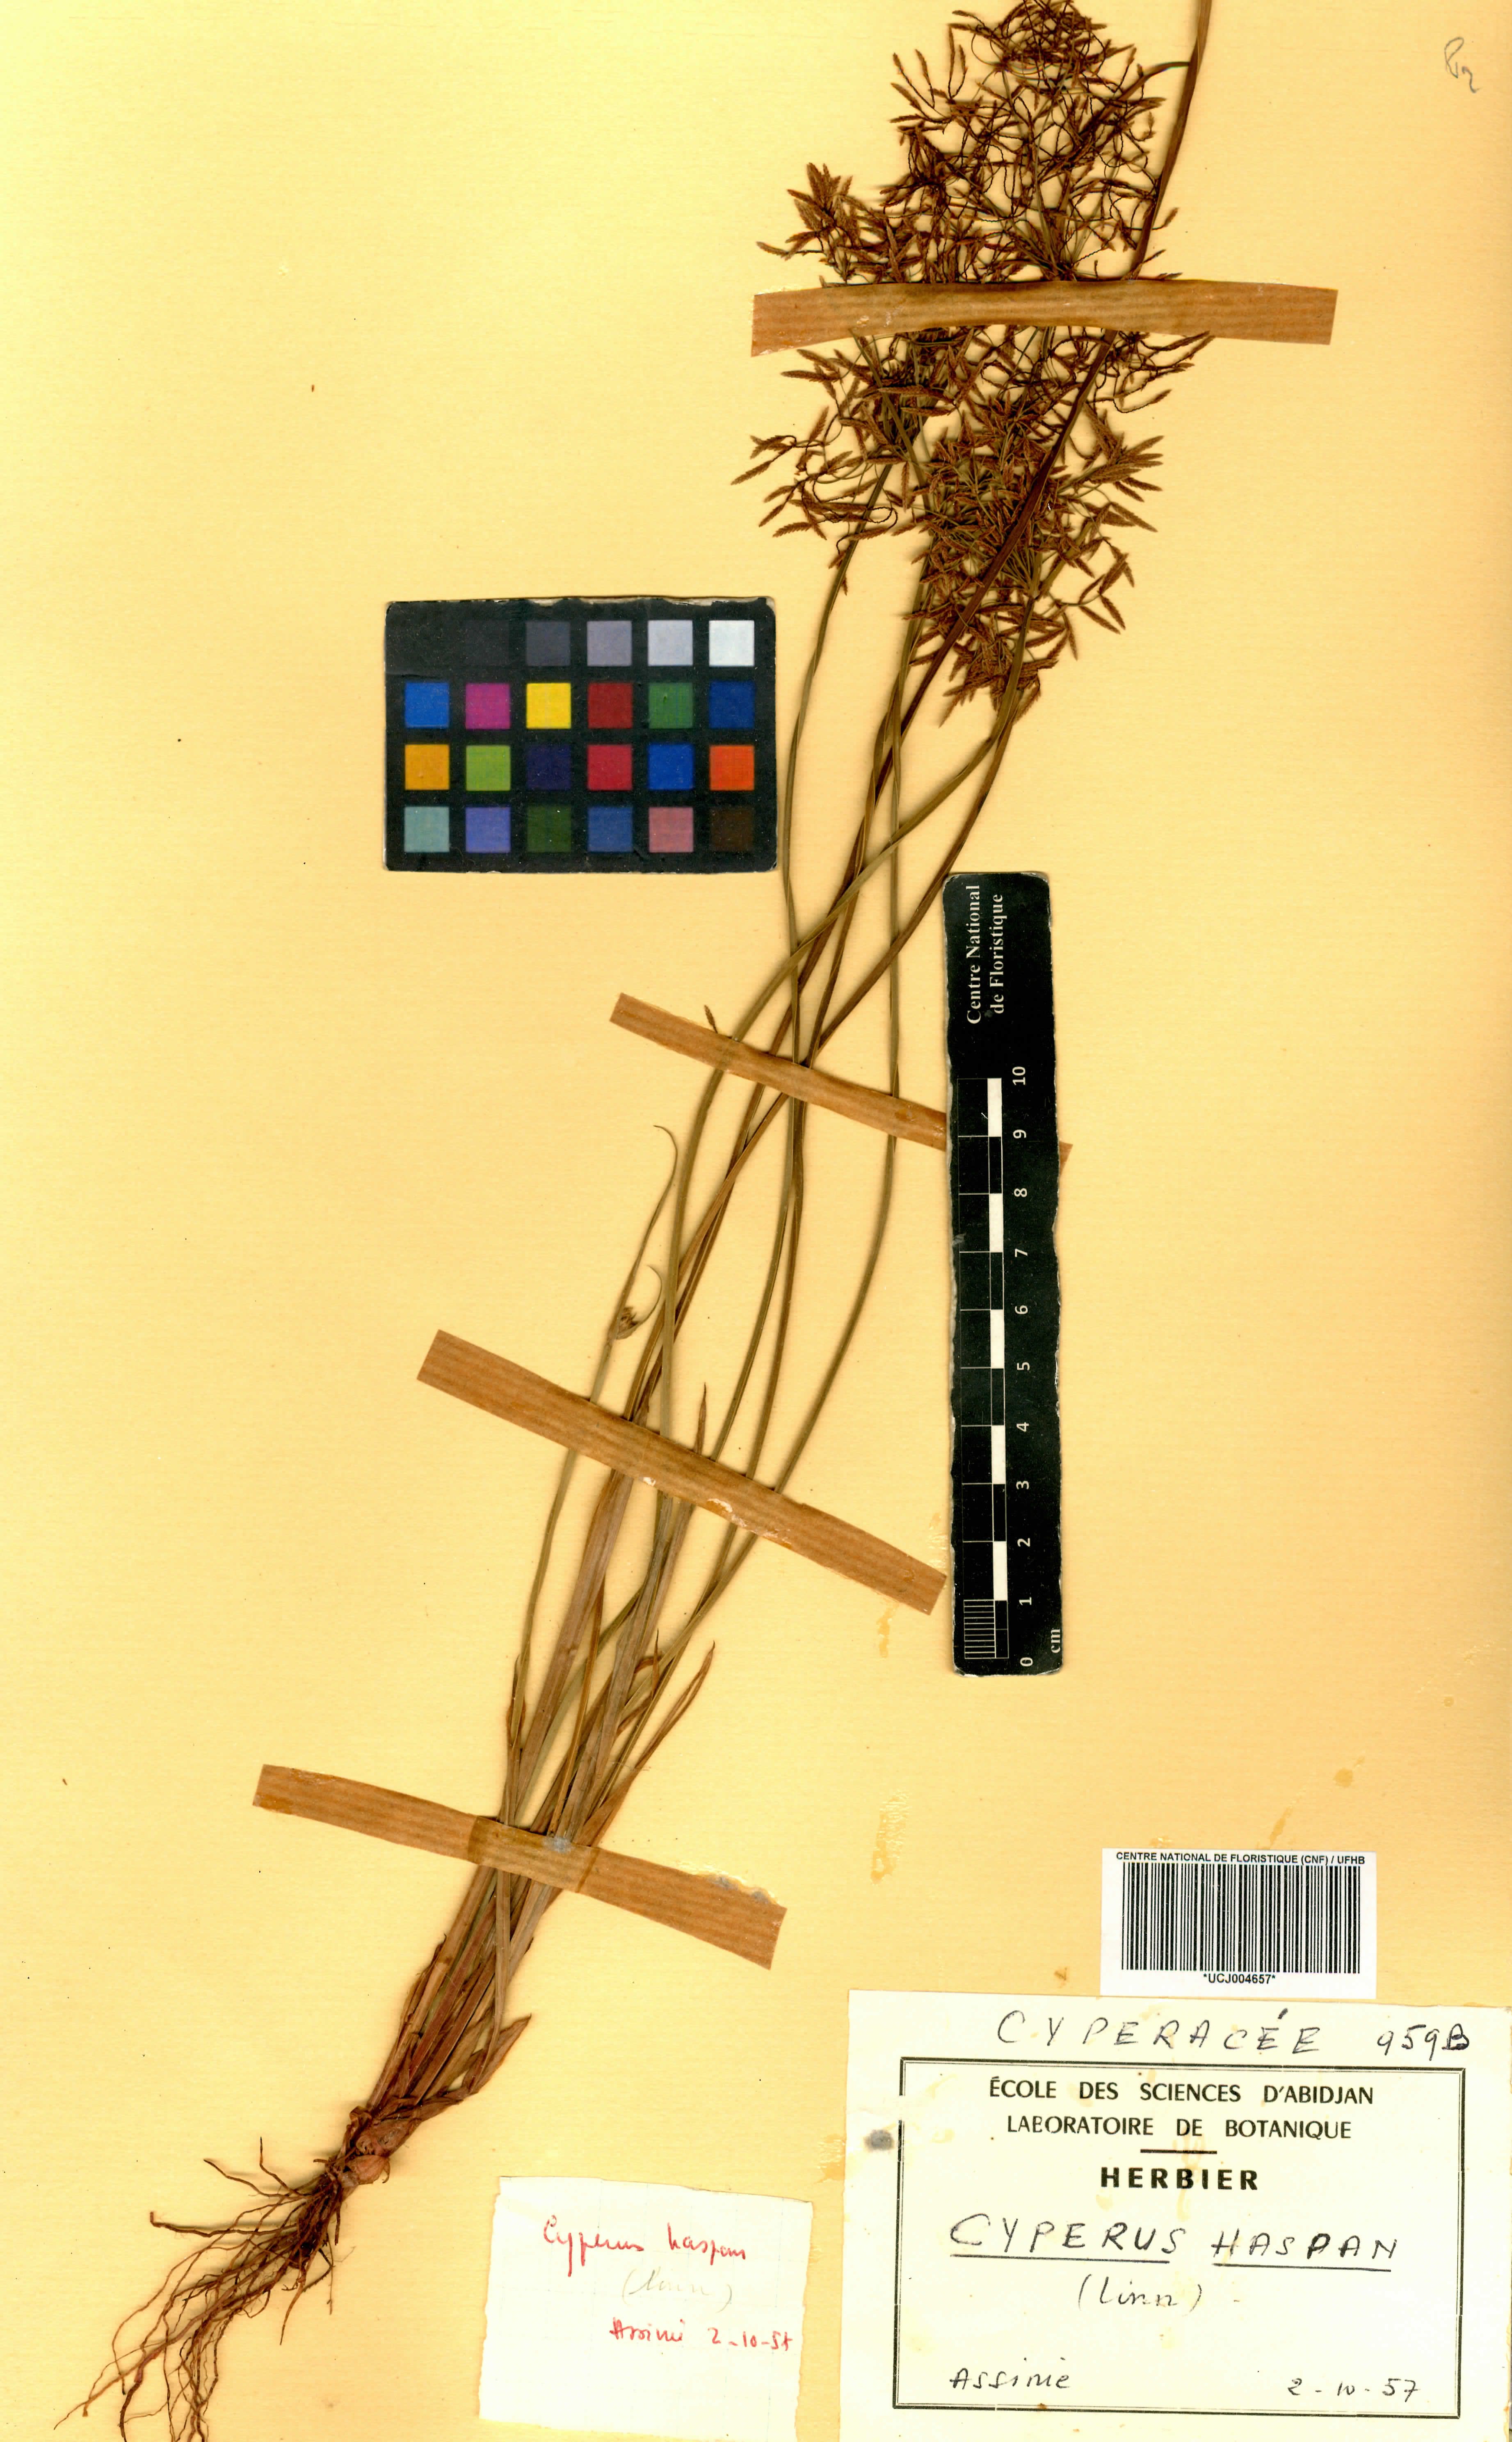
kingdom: Plantae
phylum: Tracheophyta
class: Liliopsida
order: Poales
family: Cyperaceae
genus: Cyperus
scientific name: Cyperus haspan
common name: Haspan flatsedge
